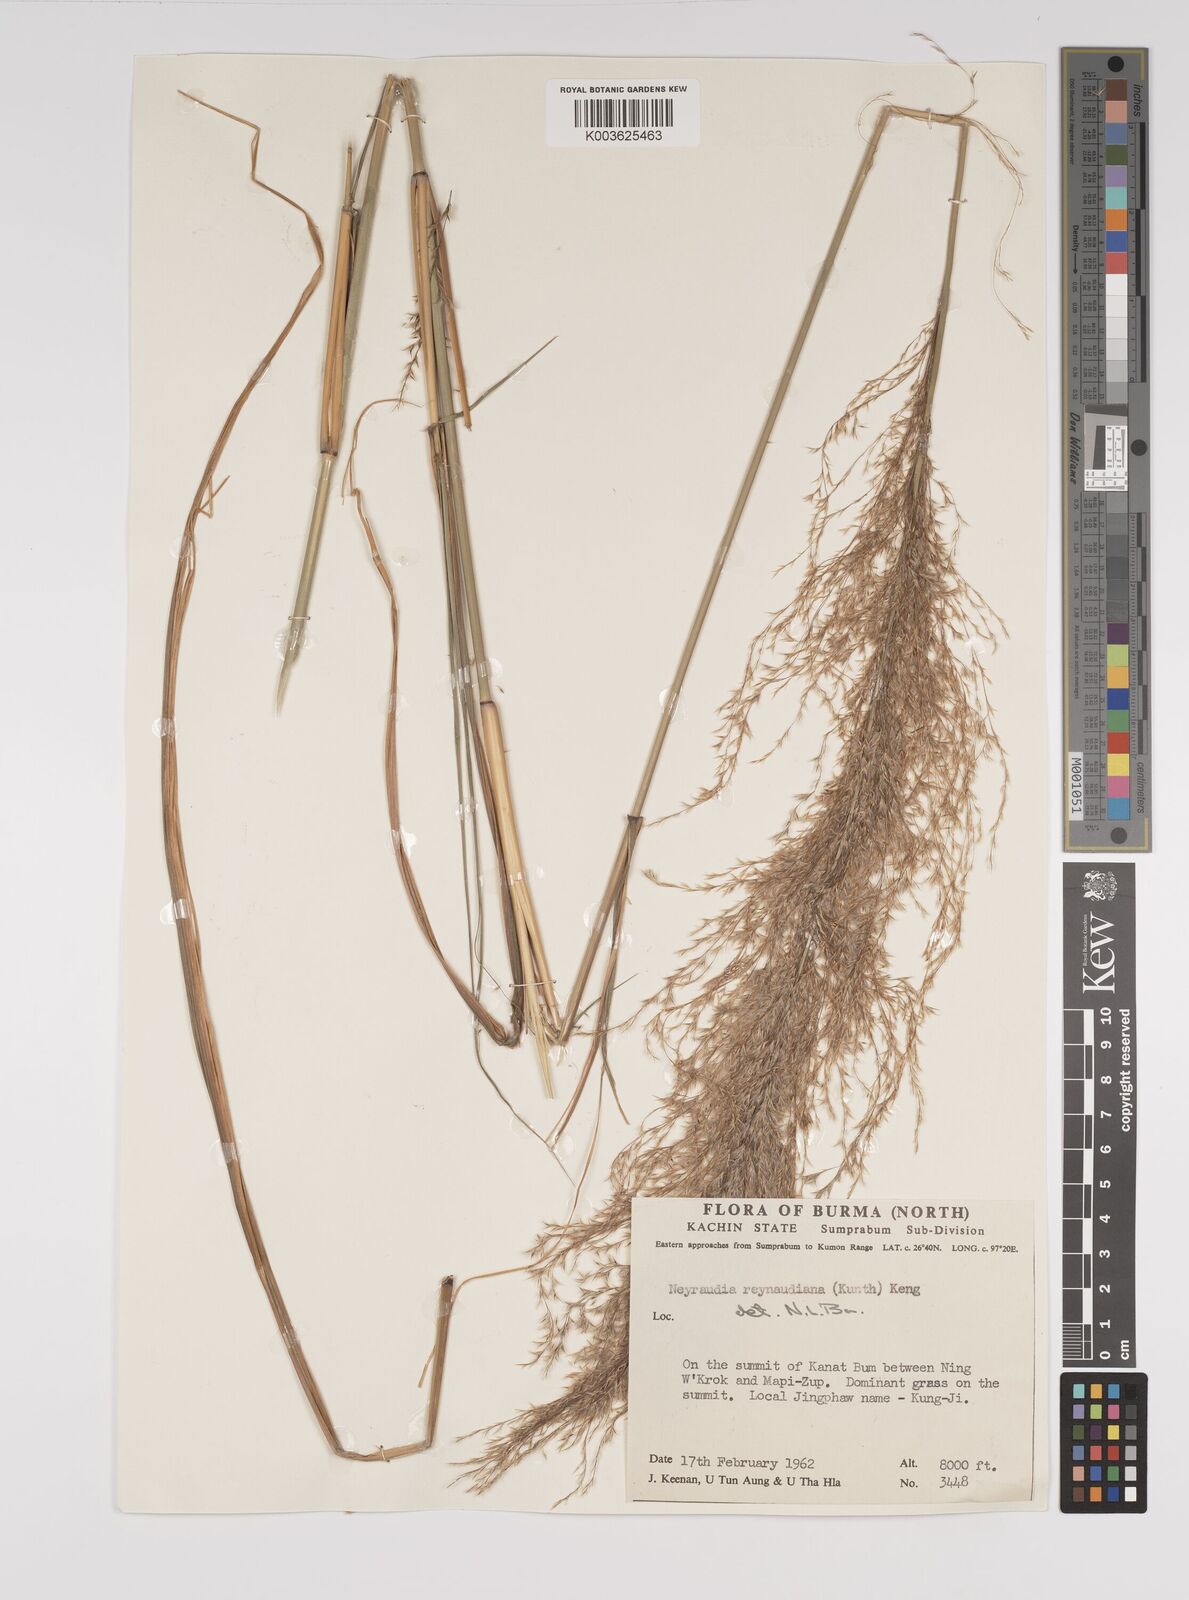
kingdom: Plantae
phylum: Tracheophyta
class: Liliopsida
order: Poales
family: Poaceae
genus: Neyraudia
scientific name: Neyraudia reynaudiana
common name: Silkreed
